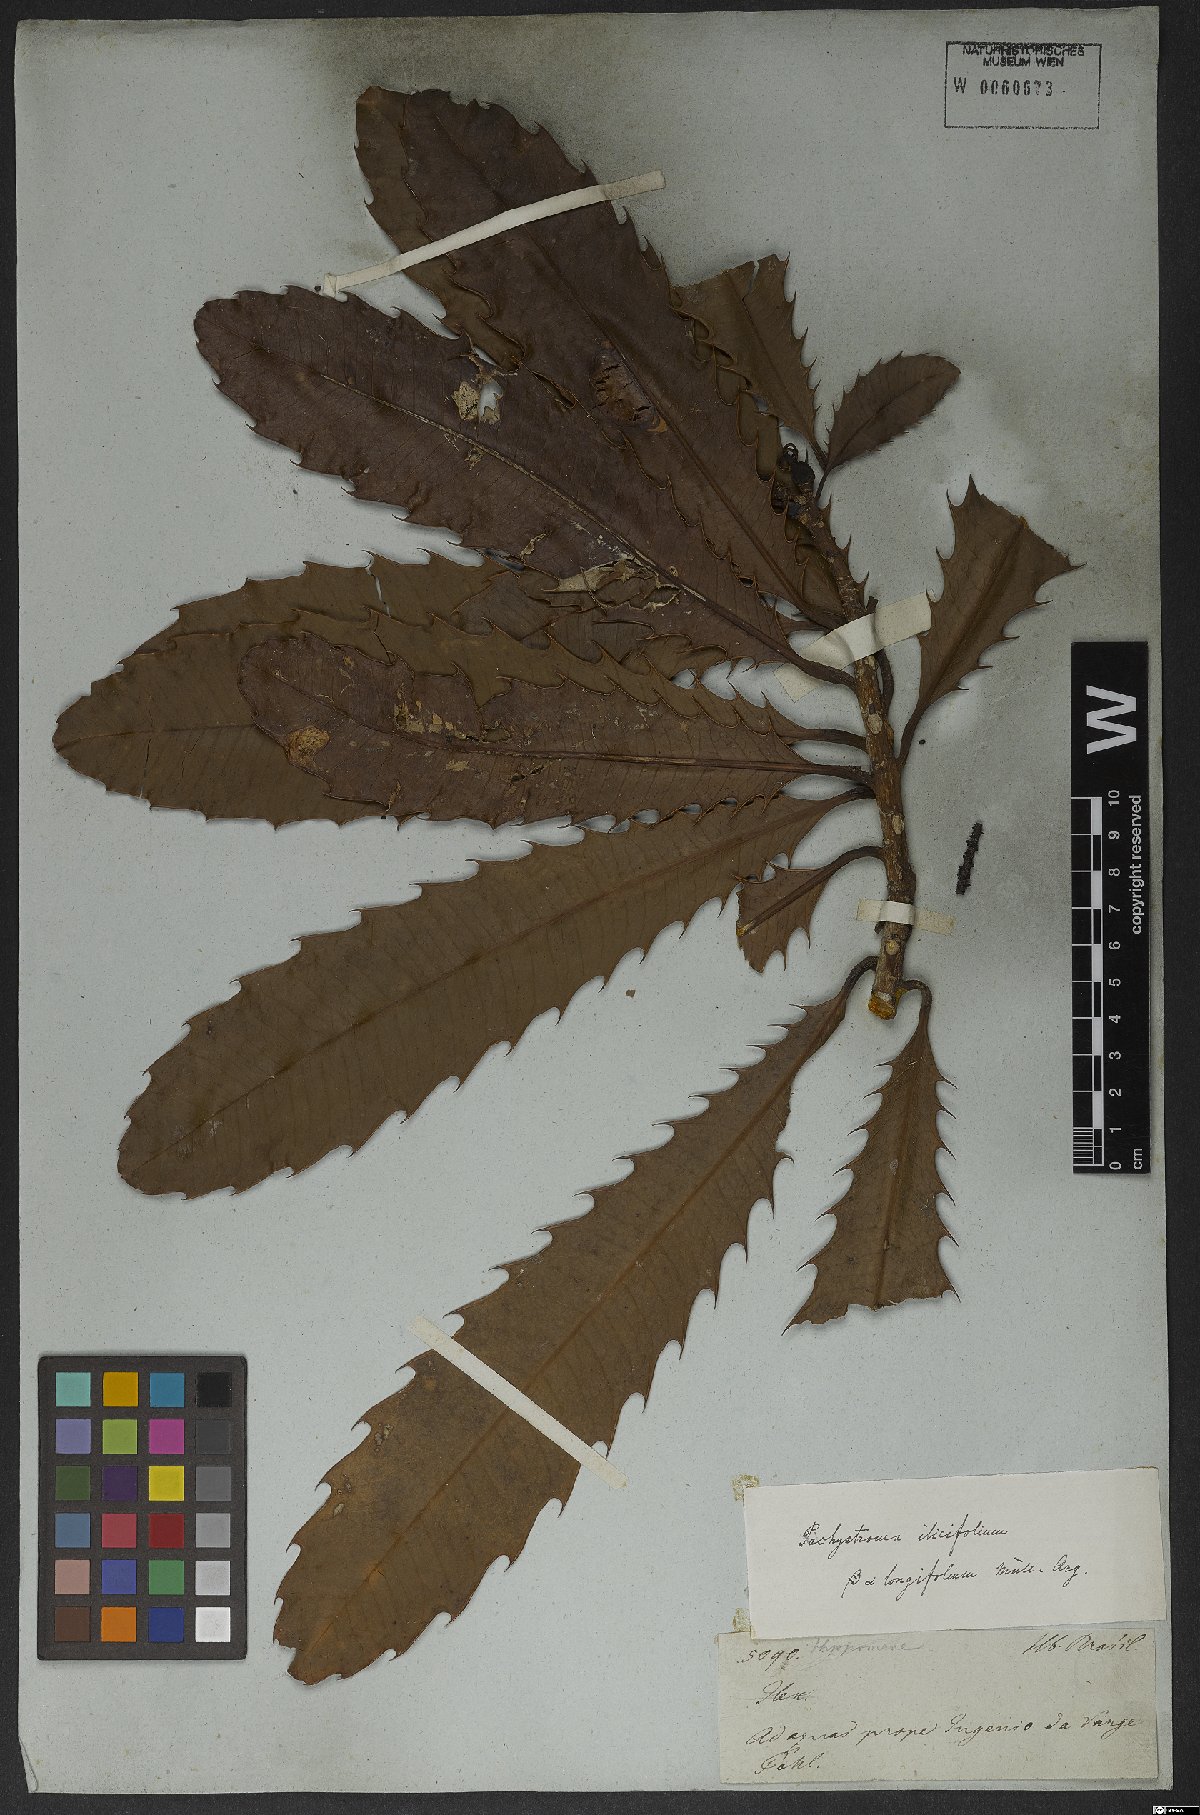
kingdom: Plantae
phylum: Tracheophyta
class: Magnoliopsida
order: Malpighiales
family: Euphorbiaceae
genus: Pachystroma
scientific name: Pachystroma longifolium
